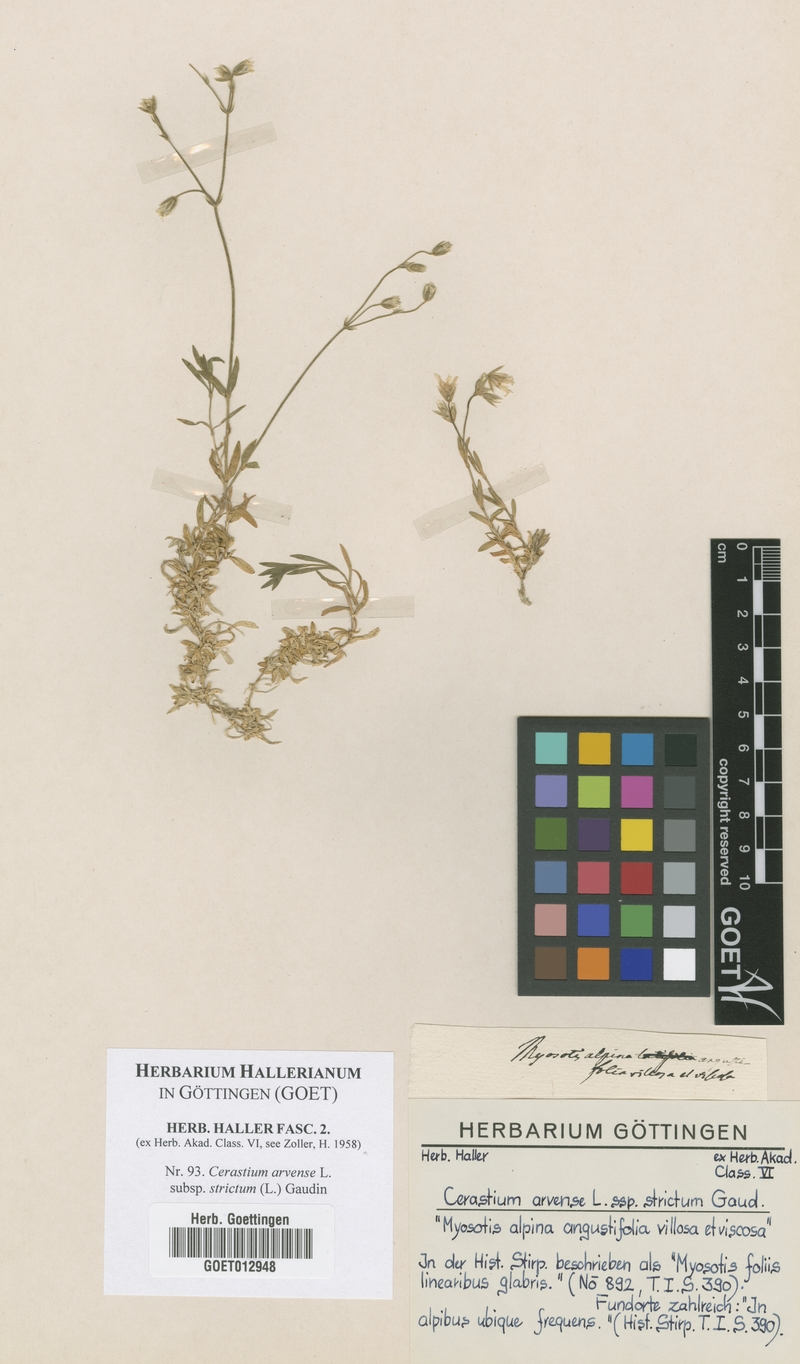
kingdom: Plantae
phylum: Tracheophyta
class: Magnoliopsida
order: Caryophyllales
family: Caryophyllaceae
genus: Cerastium
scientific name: Cerastium elongatum
